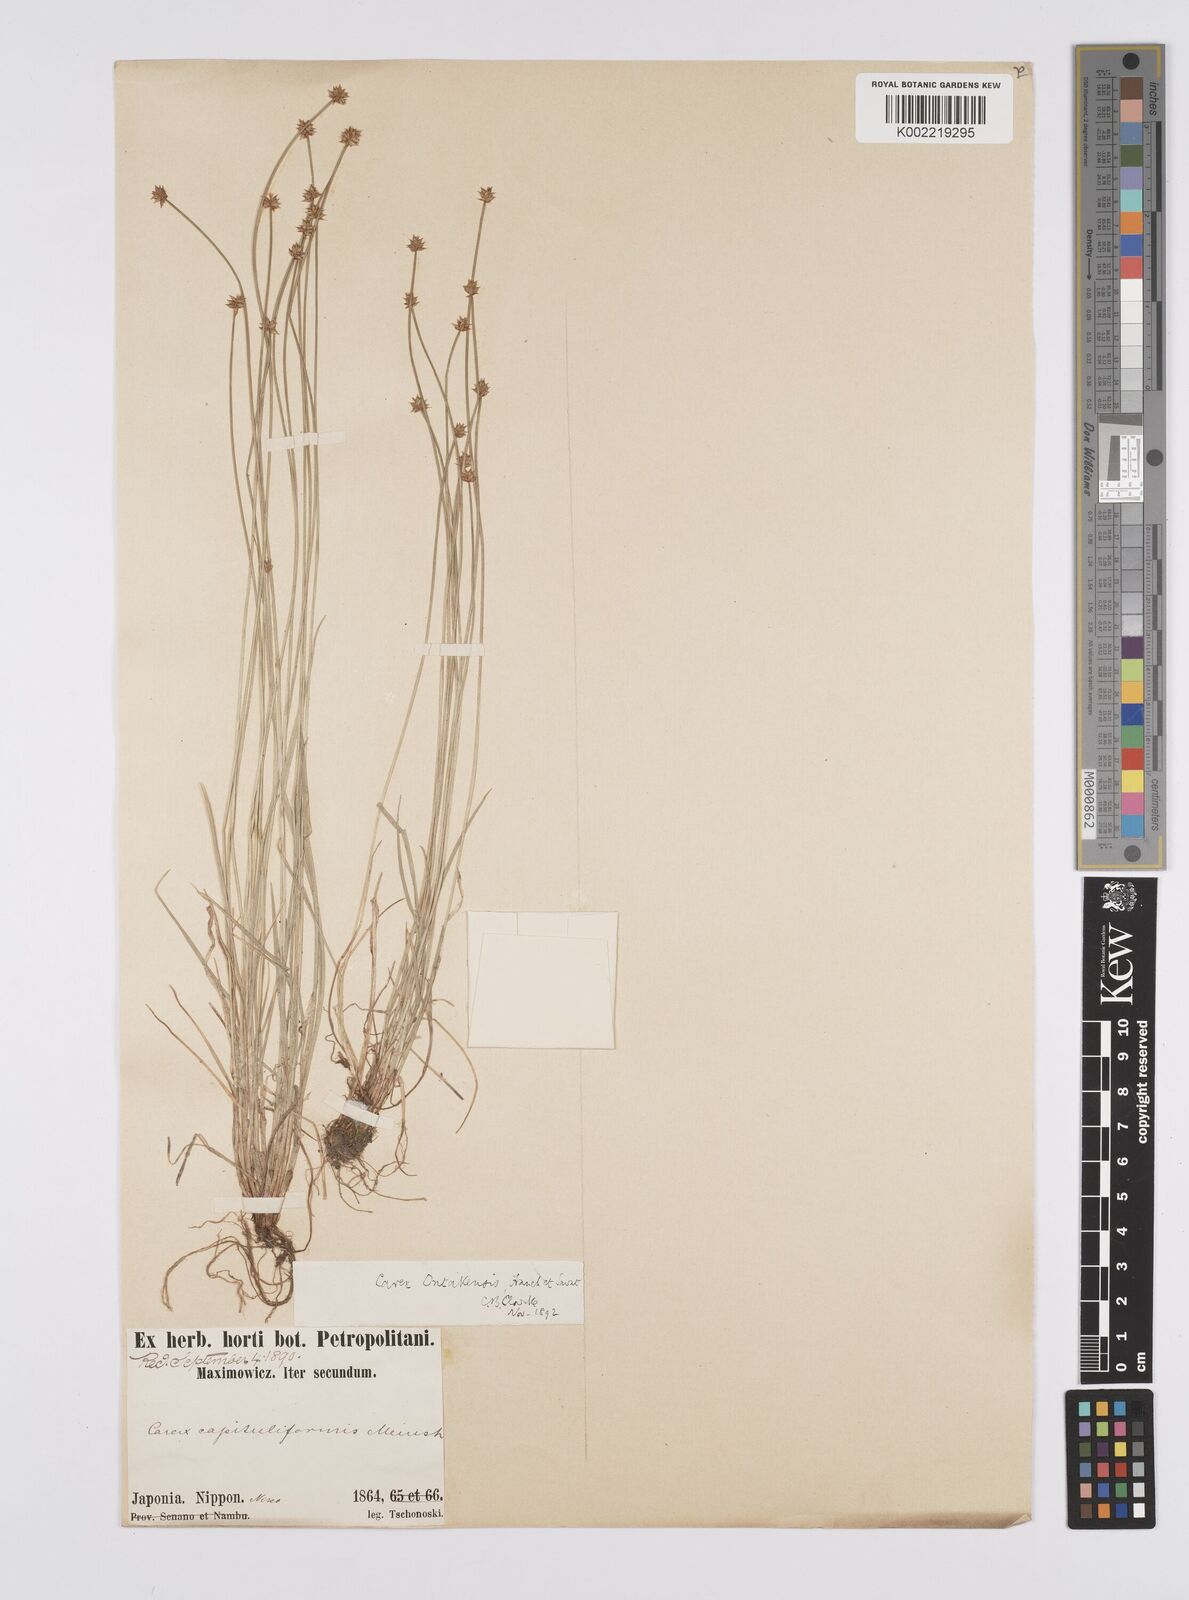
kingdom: Plantae
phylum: Tracheophyta
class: Liliopsida
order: Poales
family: Cyperaceae
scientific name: Cyperaceae
